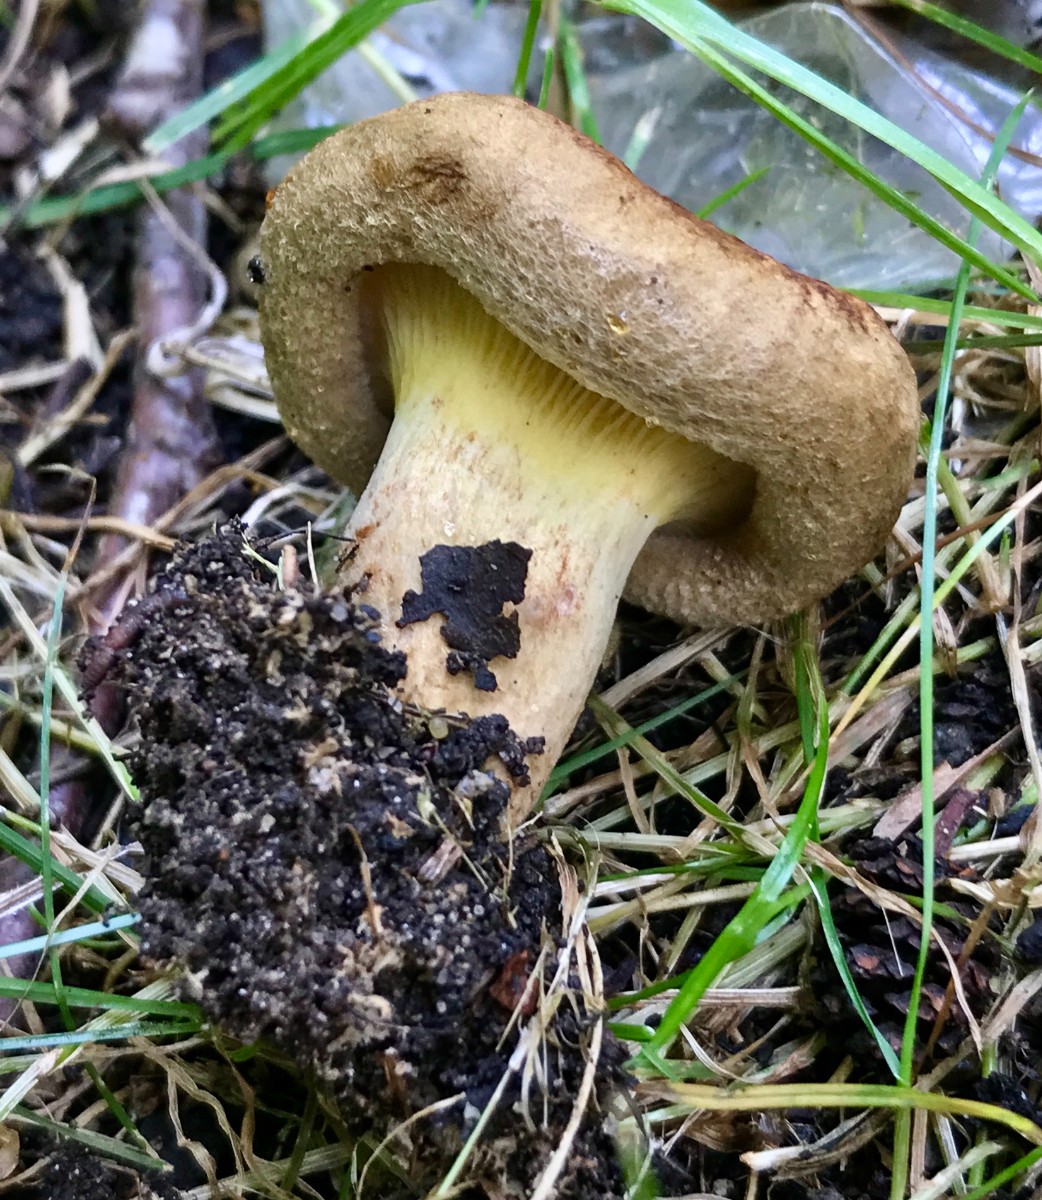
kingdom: Fungi
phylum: Basidiomycota
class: Agaricomycetes
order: Boletales
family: Paxillaceae
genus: Paxillus
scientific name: Paxillus rubicundulus
